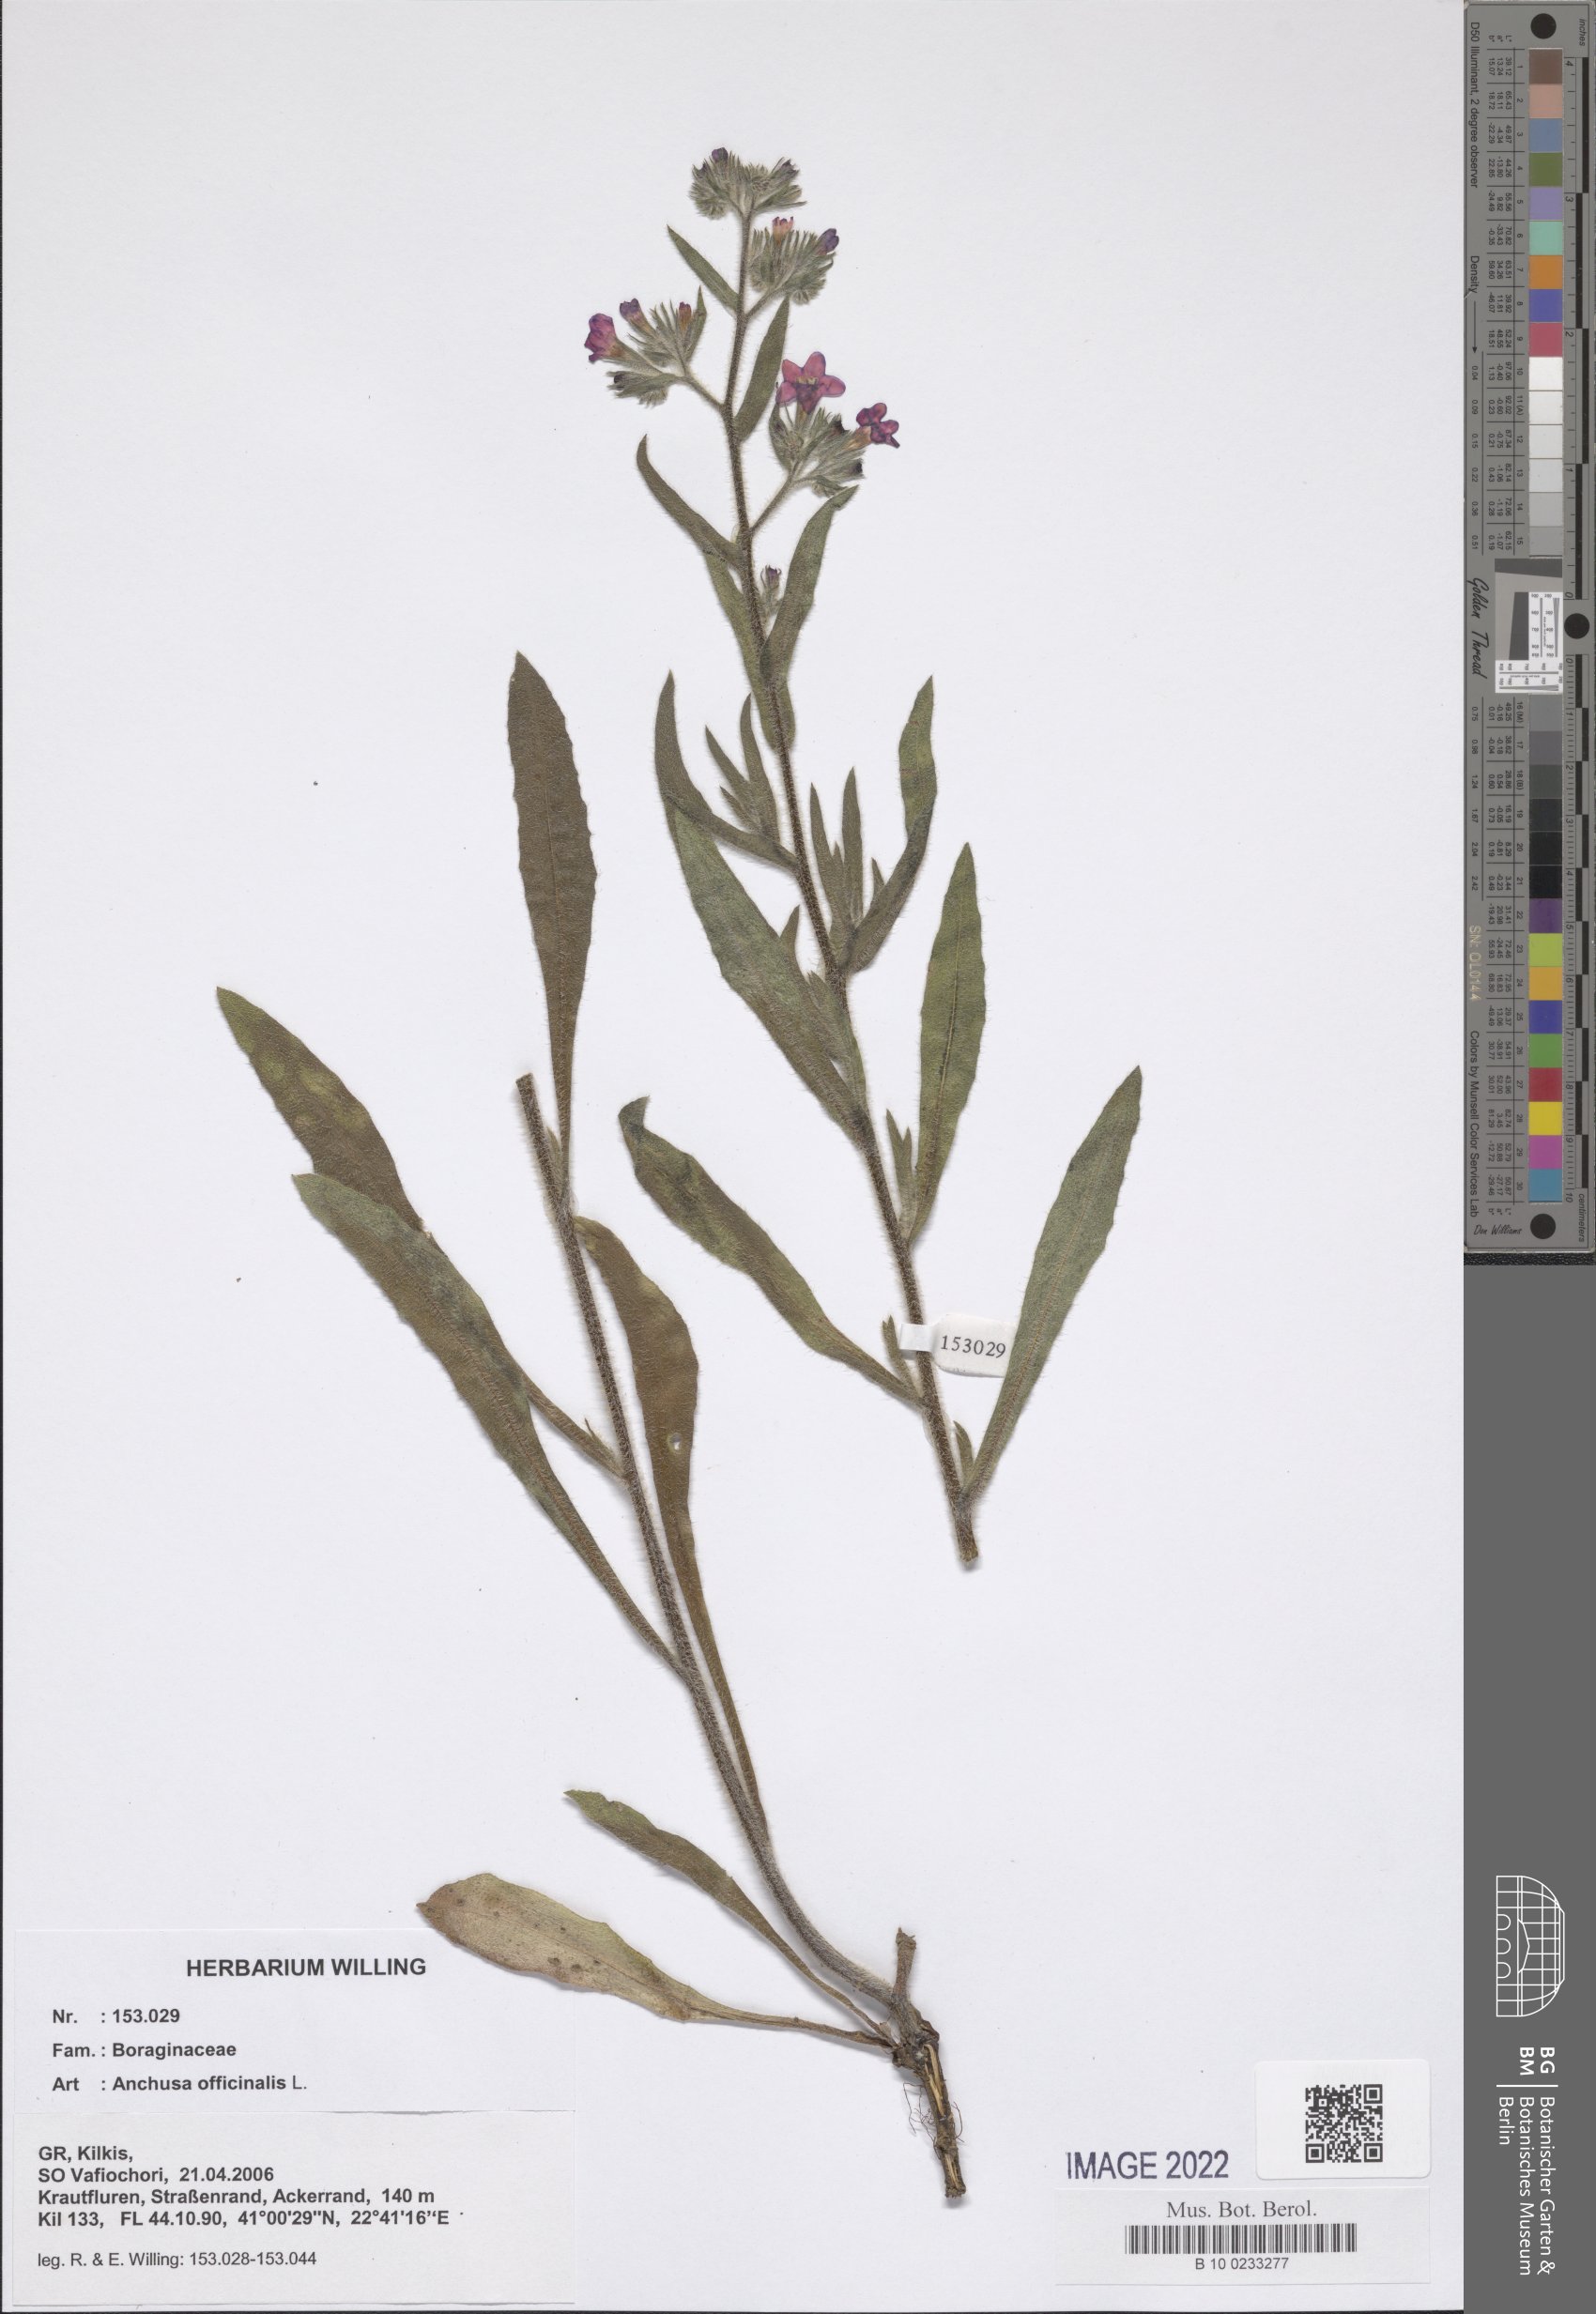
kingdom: Plantae
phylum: Tracheophyta
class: Magnoliopsida
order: Boraginales
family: Boraginaceae
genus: Anchusa
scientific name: Anchusa officinalis
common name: Alkanet
